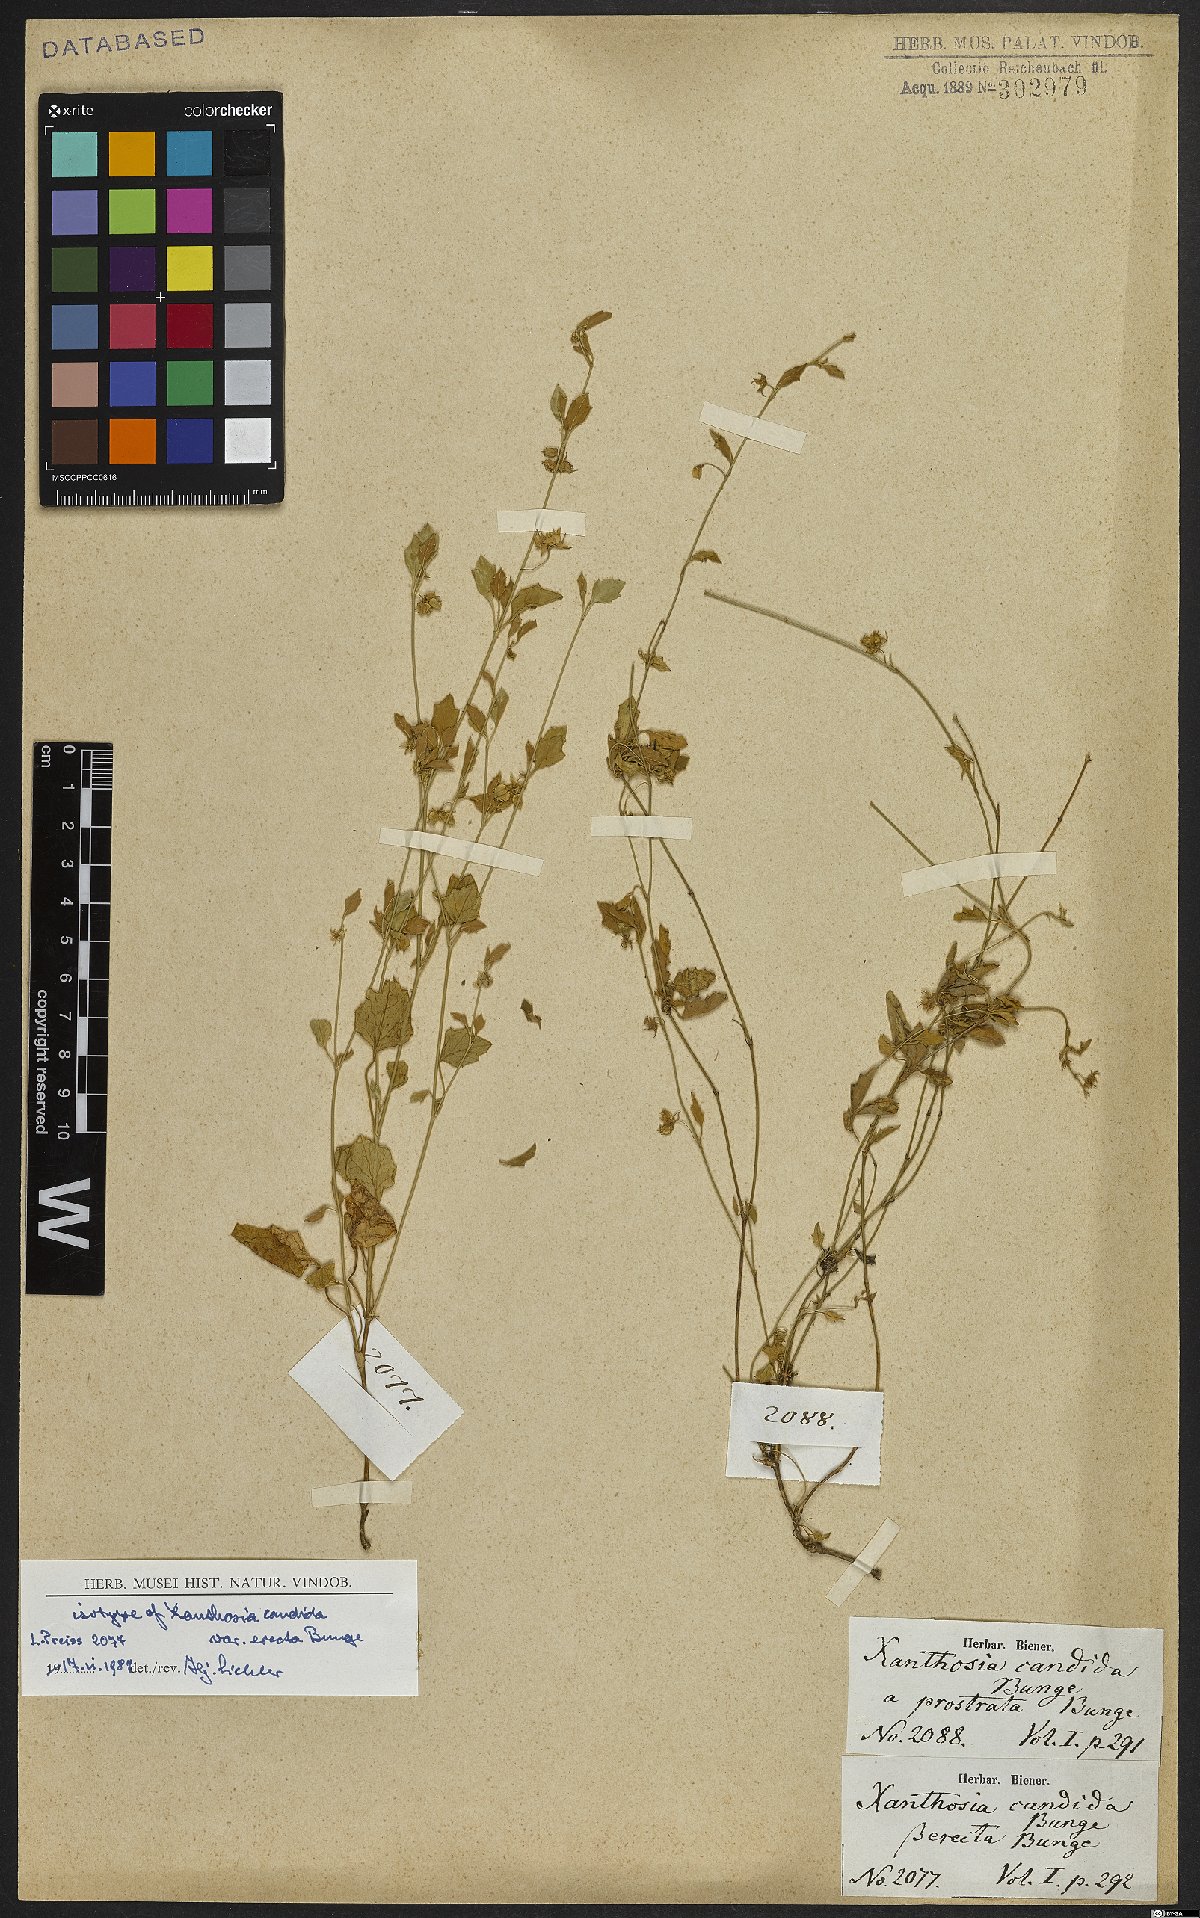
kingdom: Plantae
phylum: Tracheophyta
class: Magnoliopsida
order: Apiales
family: Apiaceae
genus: Xanthosia
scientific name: Xanthosia candida
